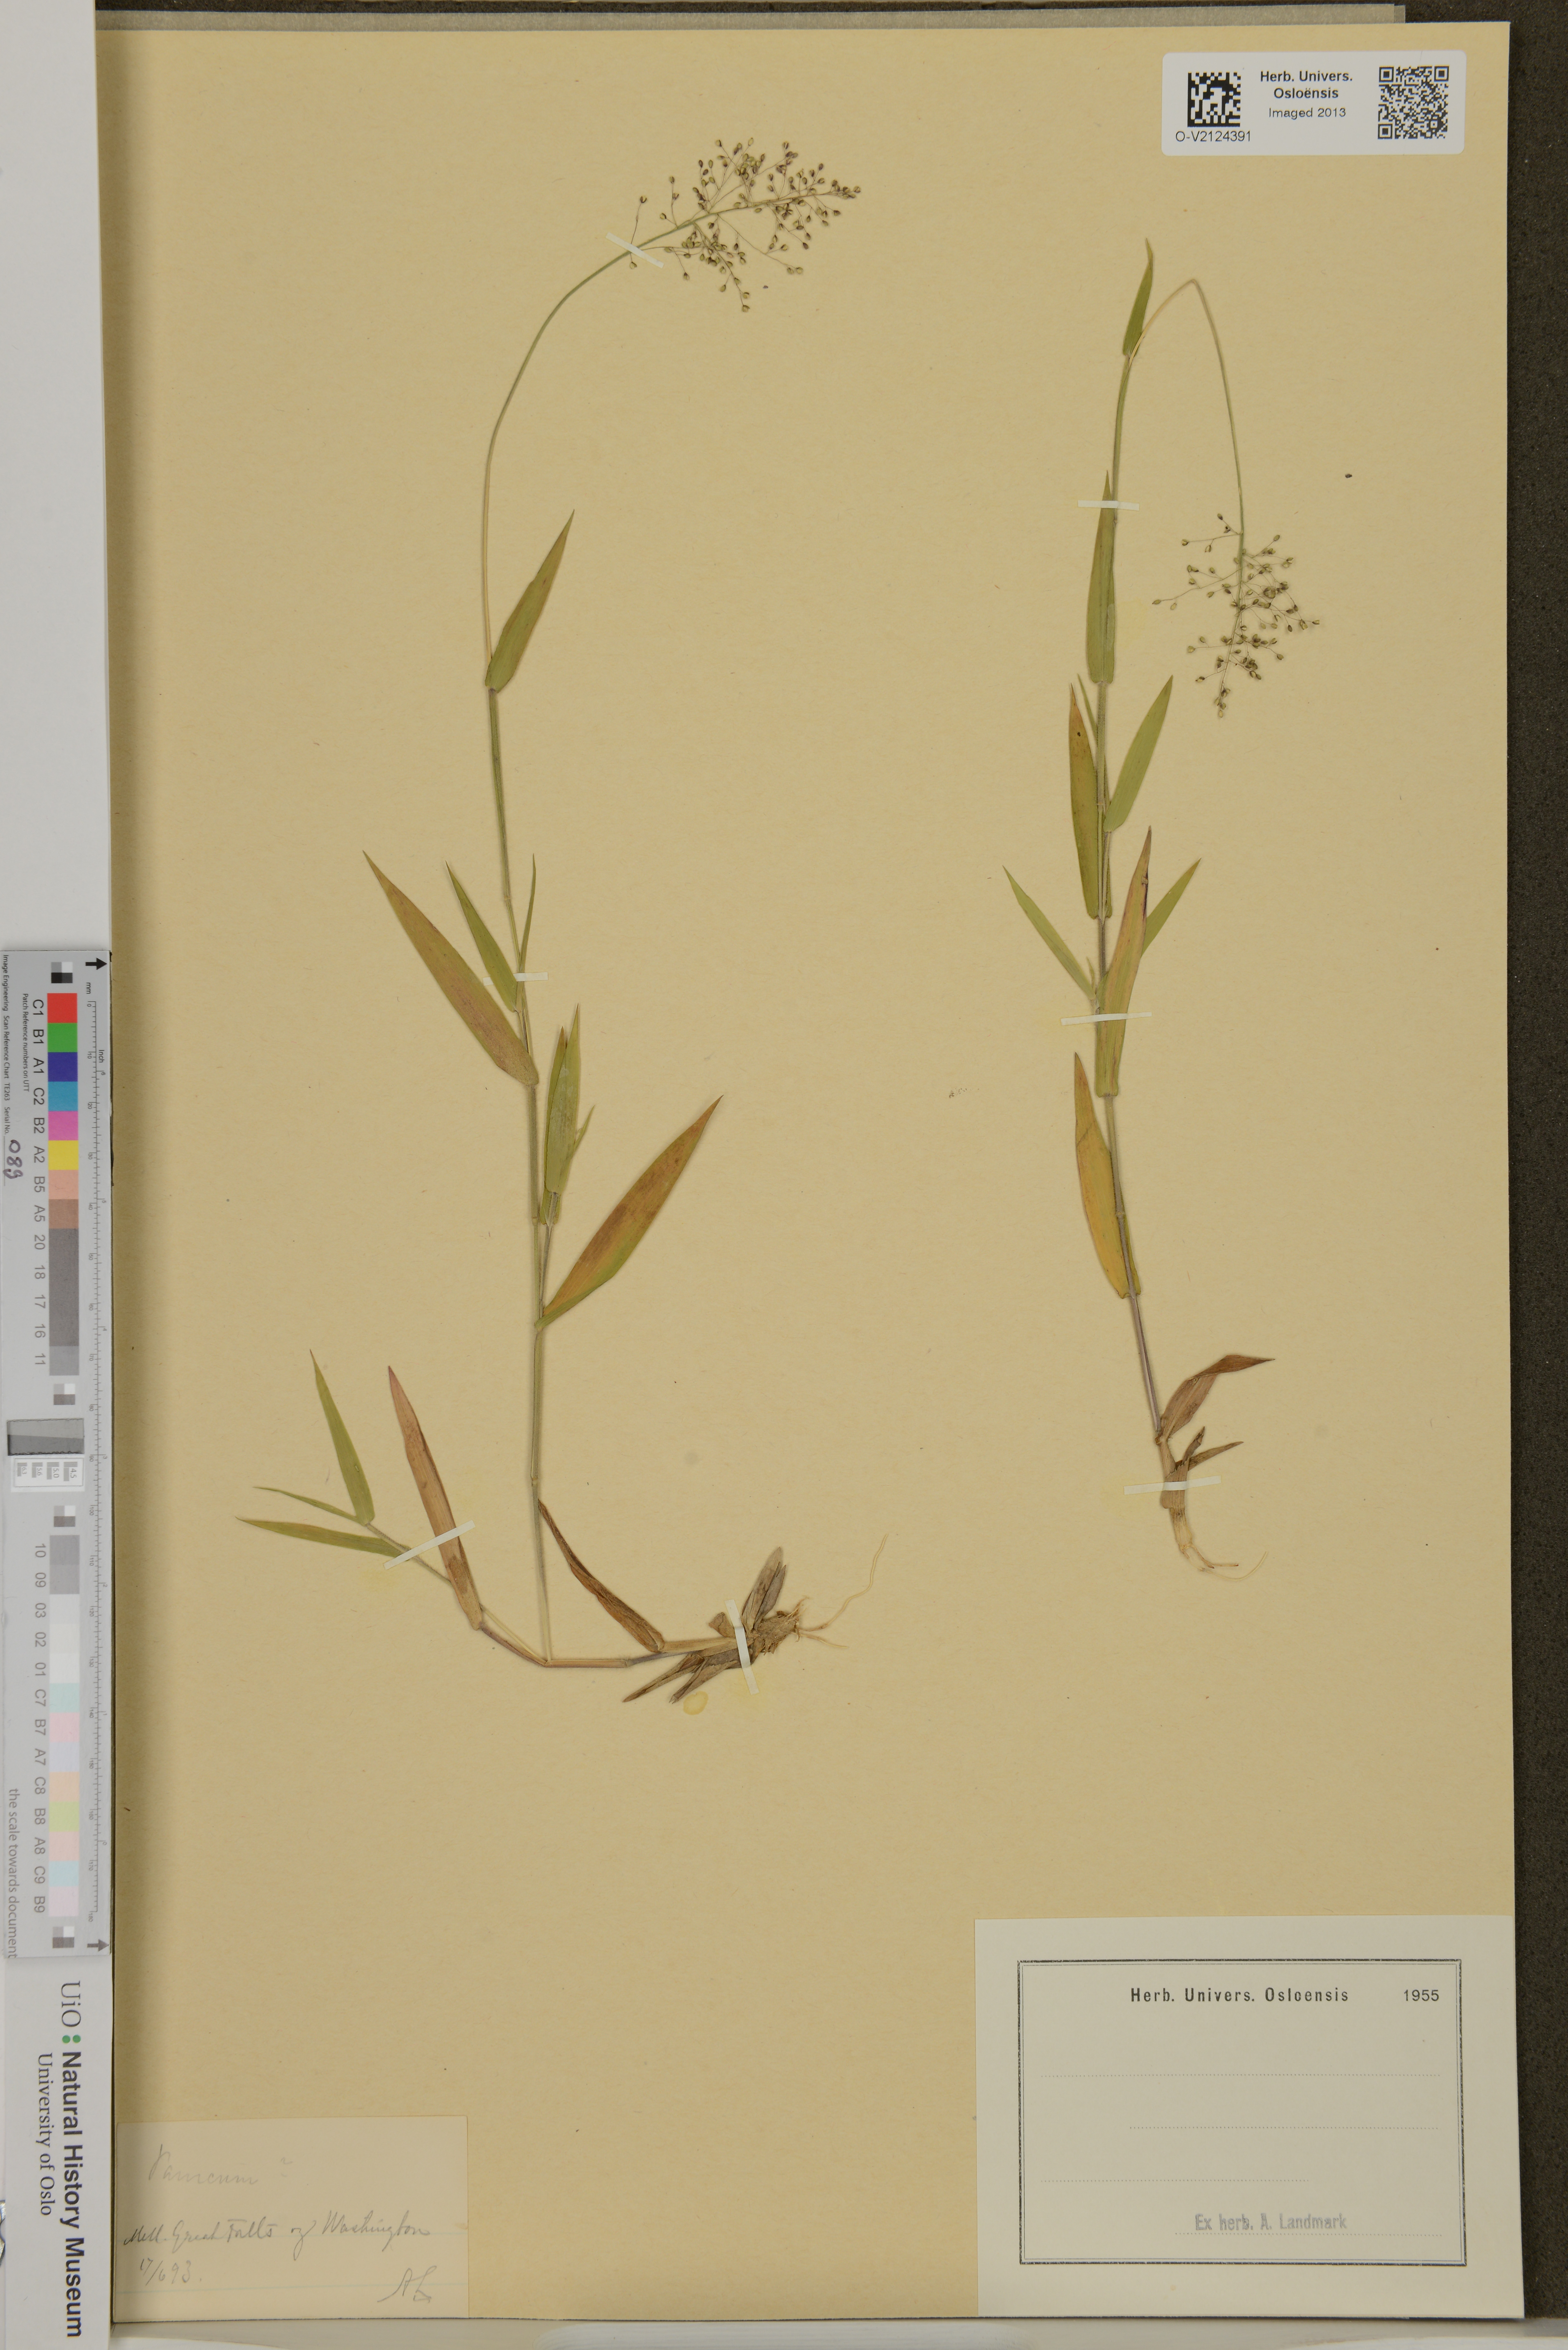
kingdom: Plantae
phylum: Tracheophyta
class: Liliopsida
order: Poales
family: Poaceae
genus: Panicum
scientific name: Panicum
